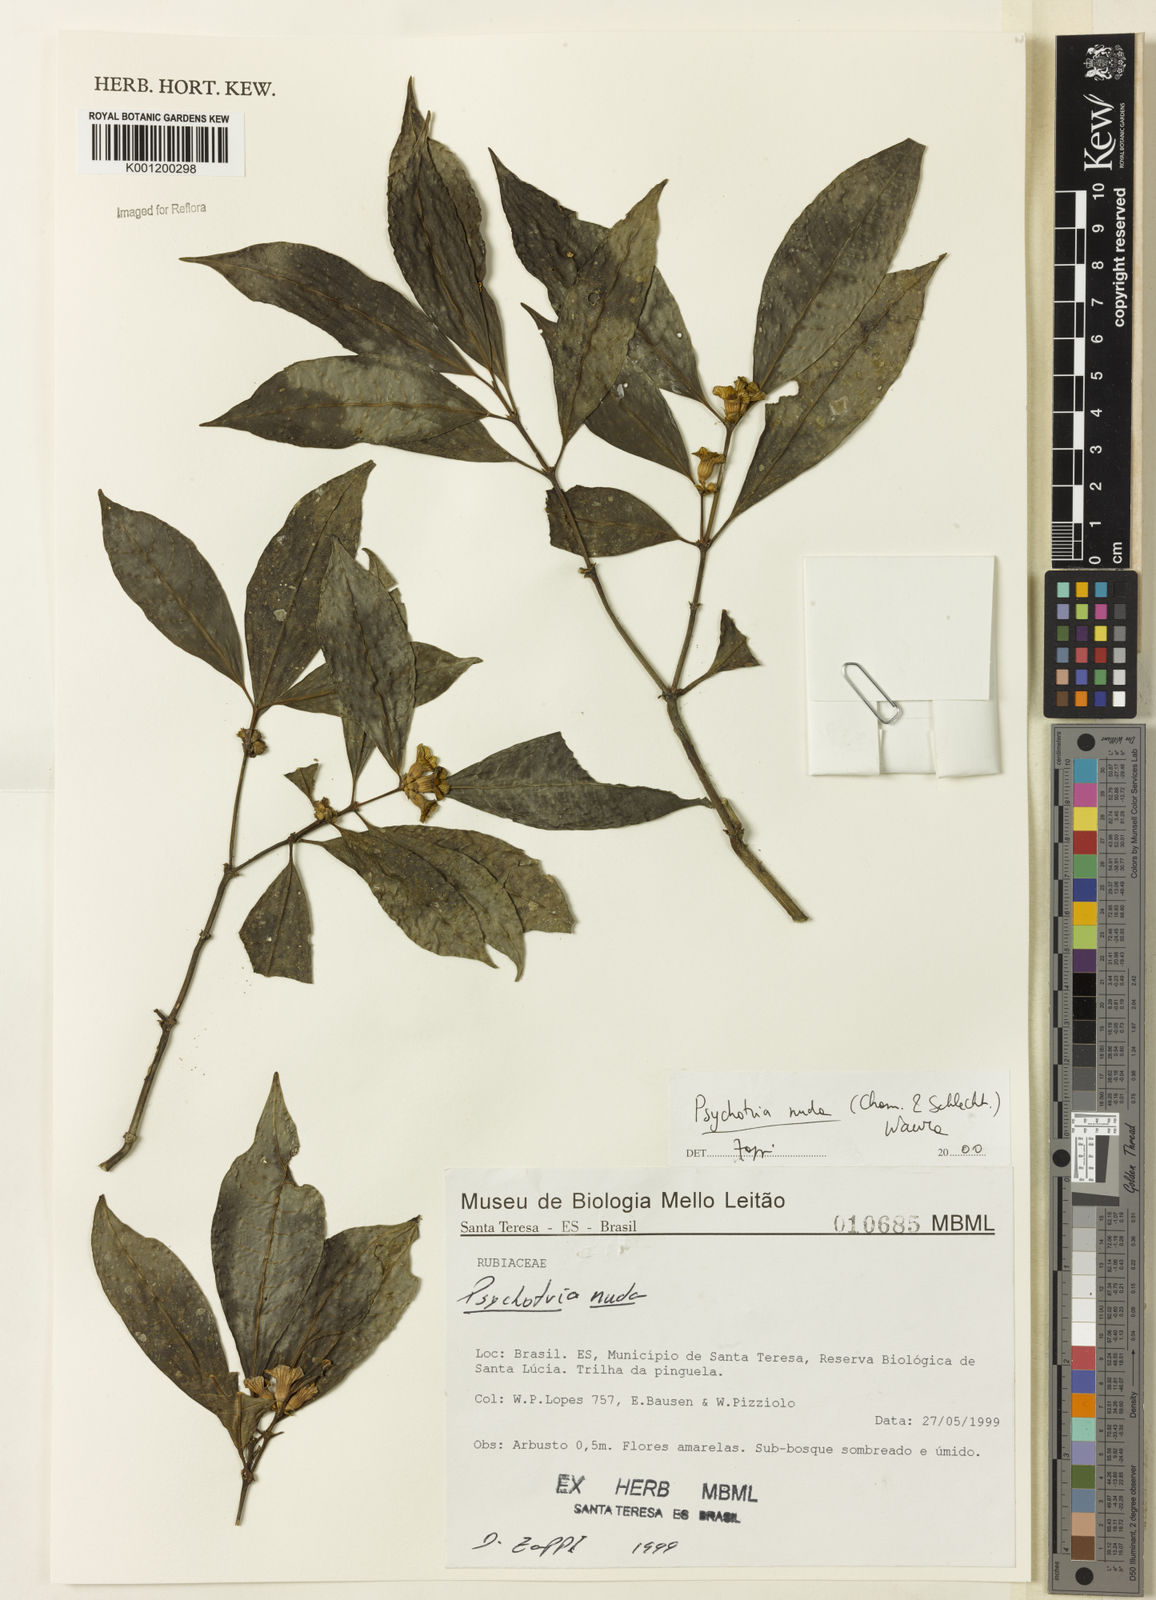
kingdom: Plantae
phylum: Tracheophyta
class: Magnoliopsida
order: Gentianales
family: Rubiaceae
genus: Psychotria
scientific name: Psychotria nuda
